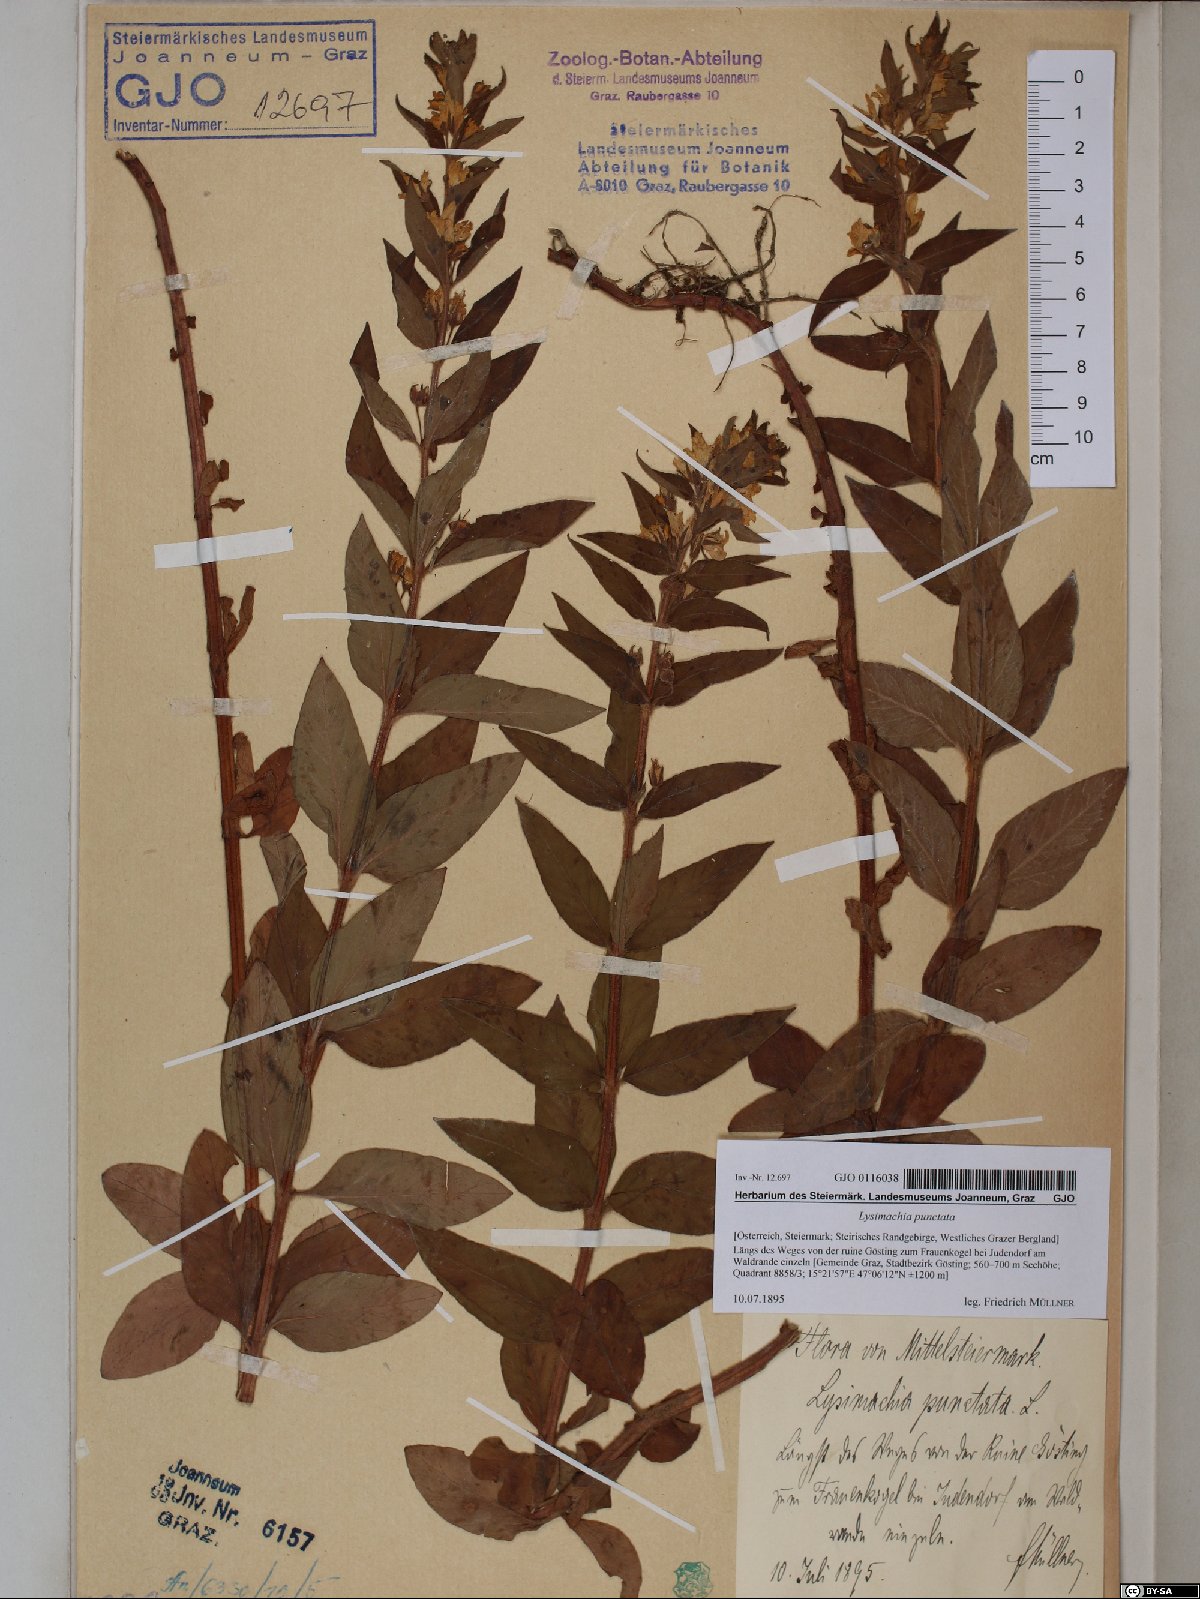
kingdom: Plantae
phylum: Tracheophyta
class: Magnoliopsida
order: Ericales
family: Primulaceae
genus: Lysimachia
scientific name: Lysimachia punctata
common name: Dotted loosestrife
